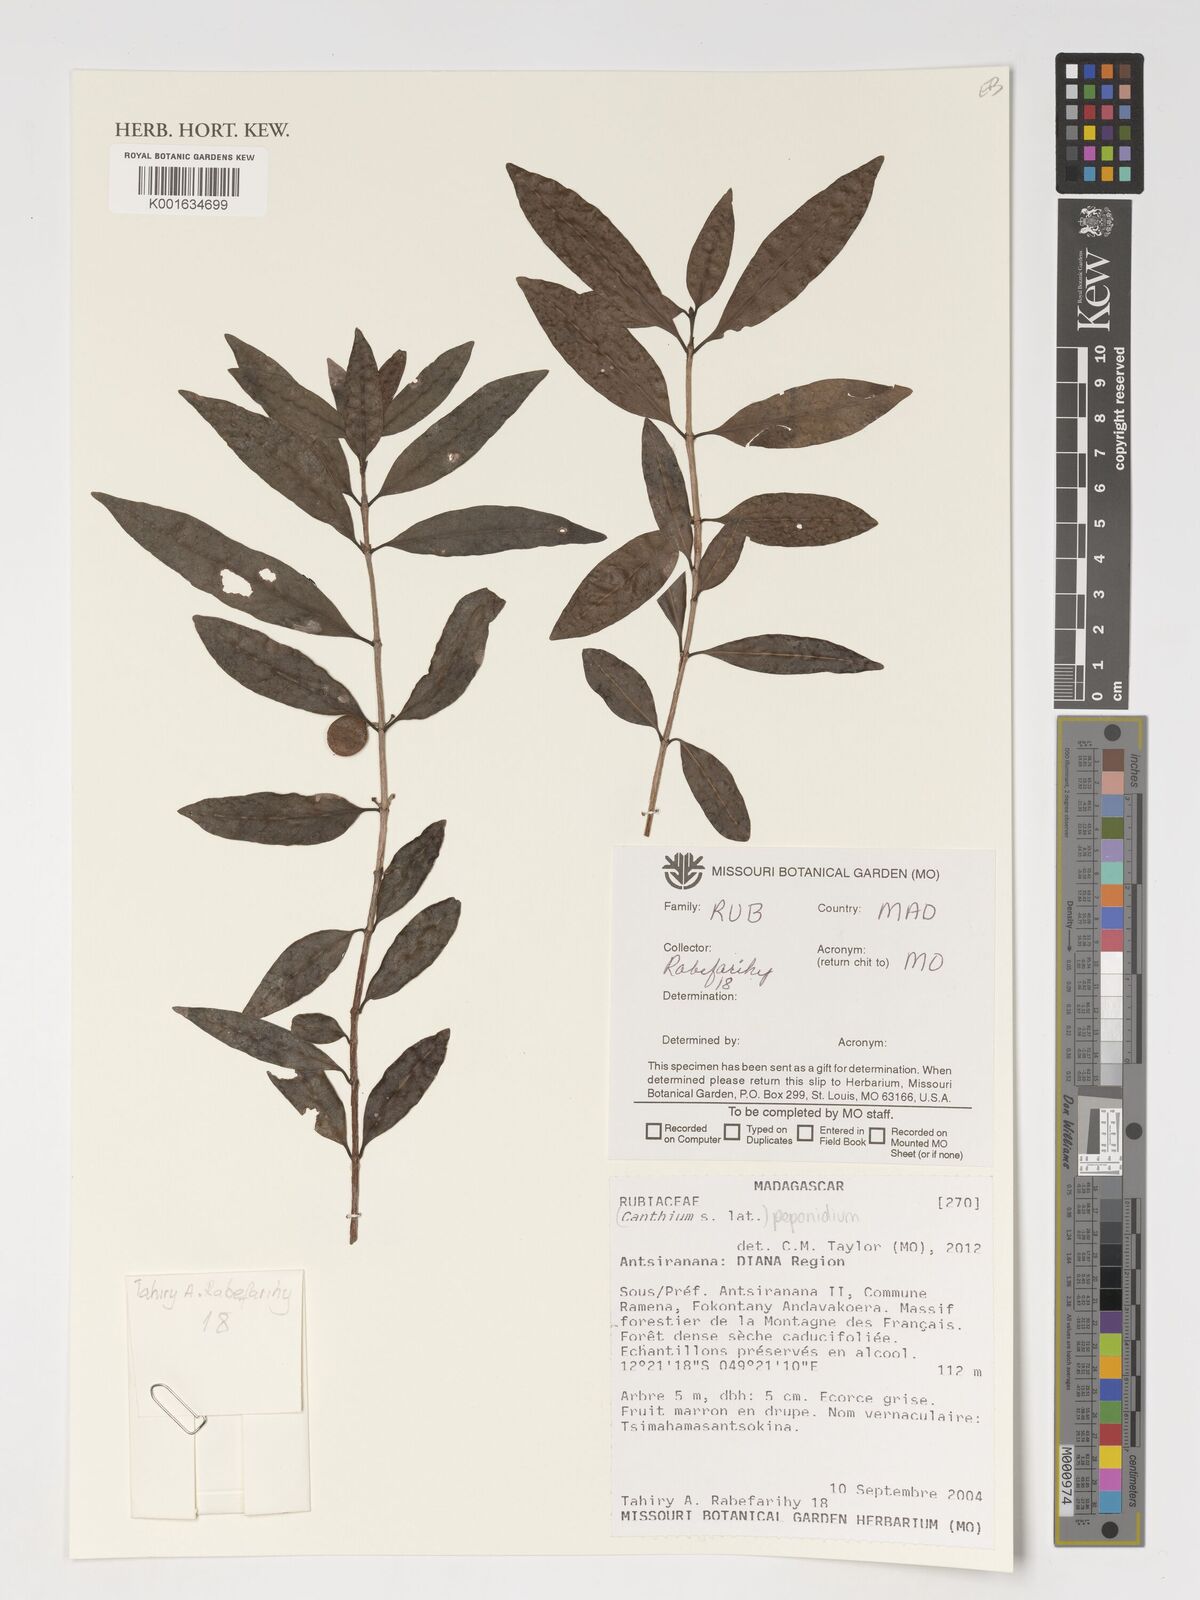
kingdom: Plantae
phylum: Tracheophyta
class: Magnoliopsida
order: Gentianales
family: Rubiaceae
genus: Peponidium
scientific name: Peponidium
